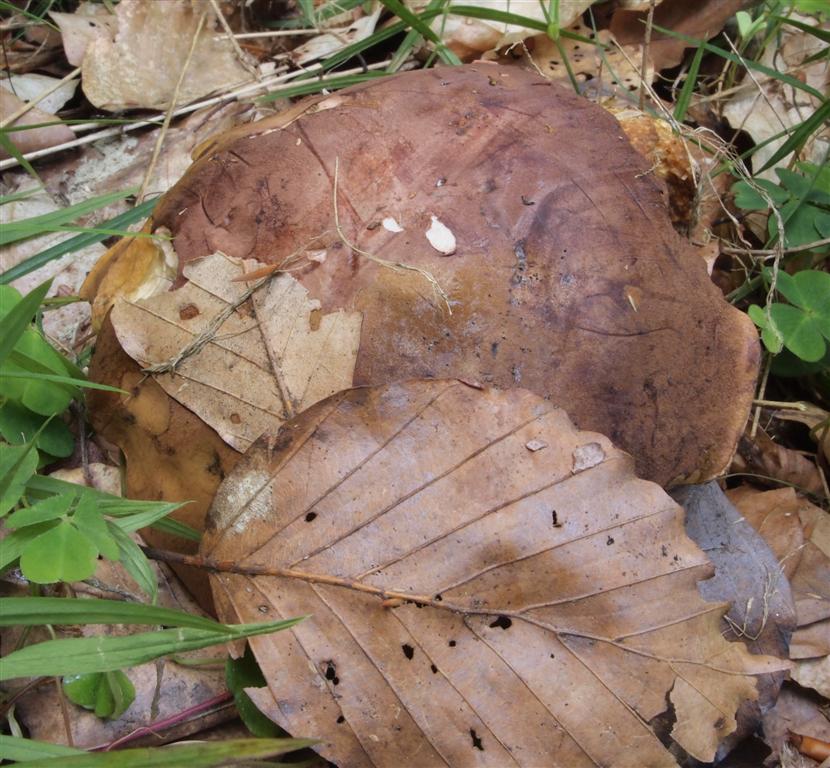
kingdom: Fungi
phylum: Basidiomycota
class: Agaricomycetes
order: Boletales
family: Boletaceae
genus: Imleria
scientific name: Imleria badia
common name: brunstokket rørhat
